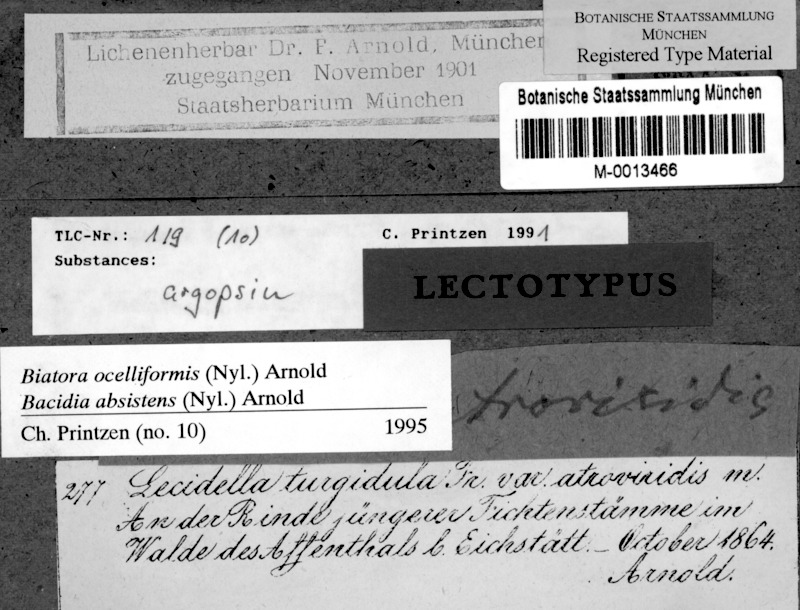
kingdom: Fungi
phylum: Ascomycota
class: Lecanoromycetes
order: Lecanorales
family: Ramalinaceae
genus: Bacidia
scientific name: Bacidia absistens
